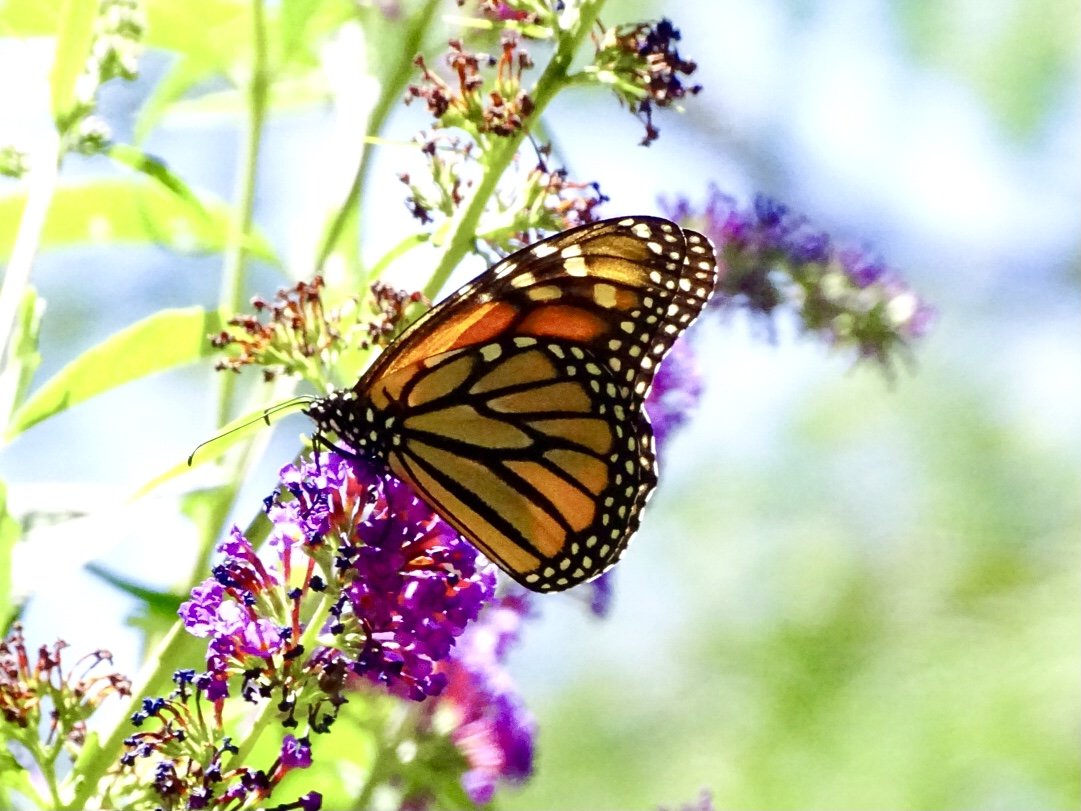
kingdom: Animalia
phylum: Arthropoda
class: Insecta
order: Lepidoptera
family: Nymphalidae
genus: Danaus
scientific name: Danaus plexippus
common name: Monarch
